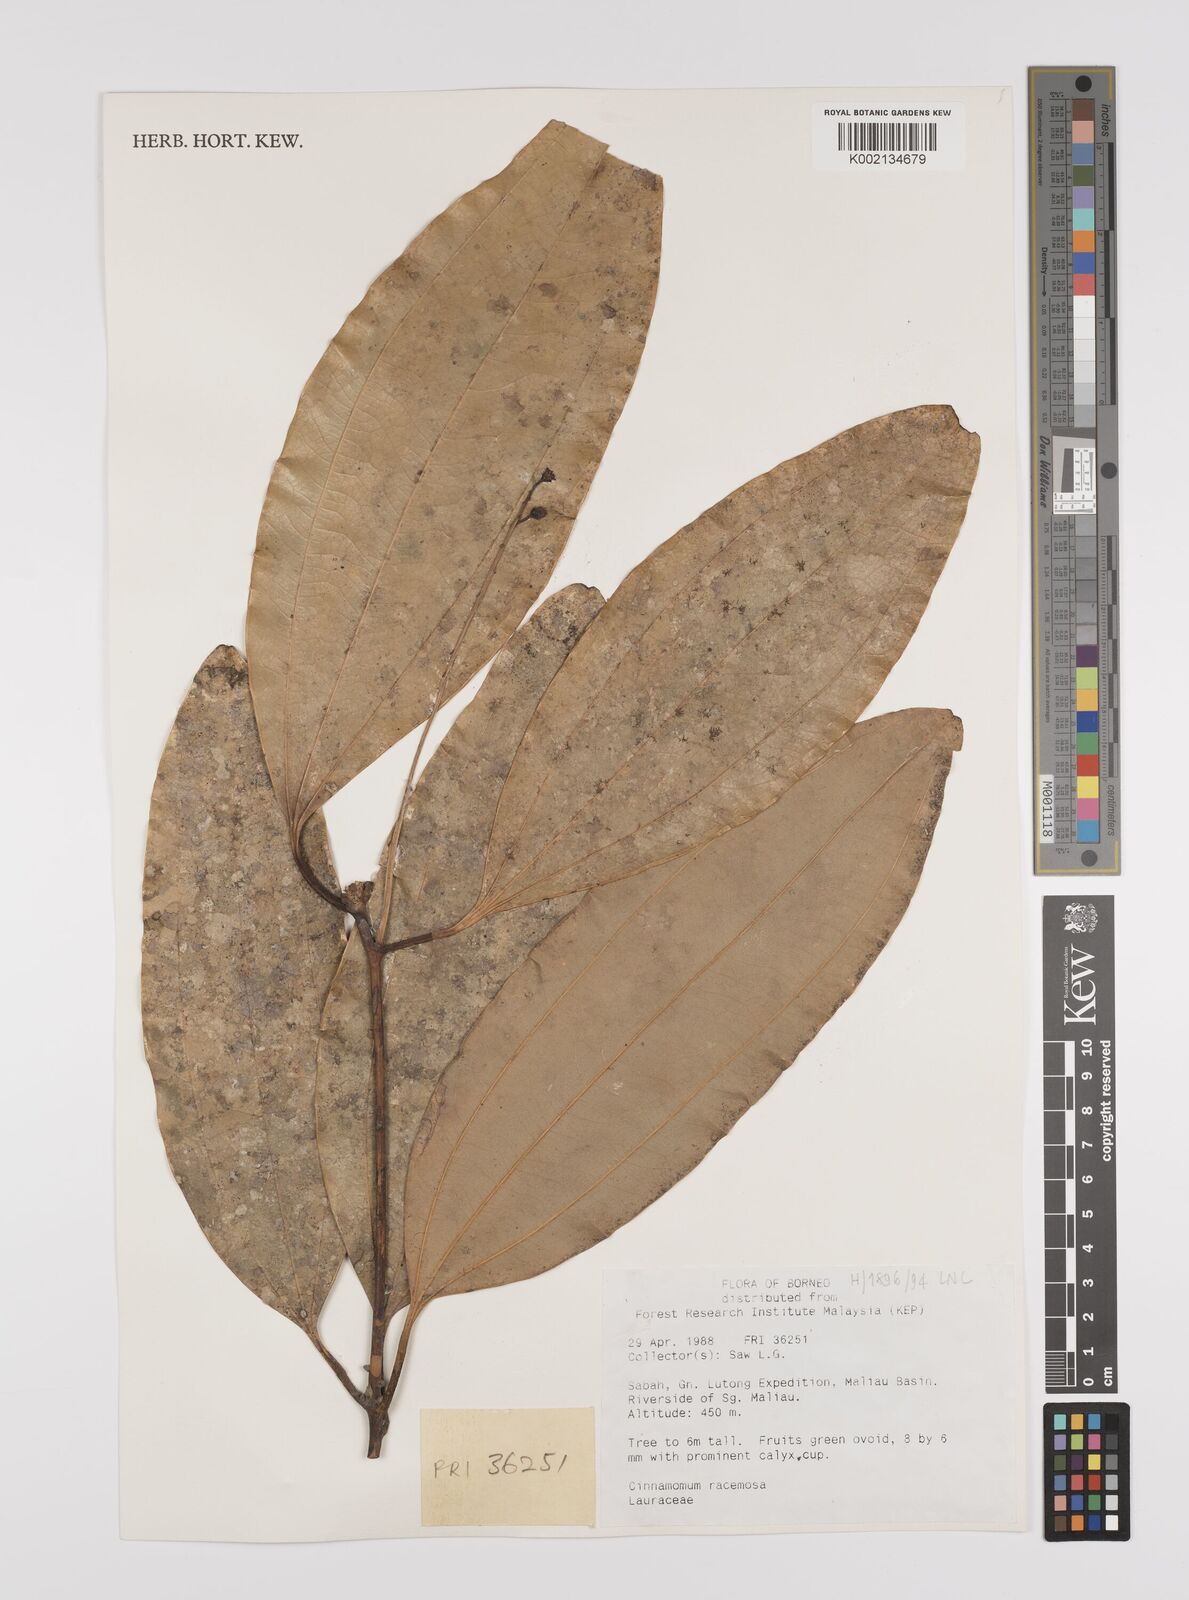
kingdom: Plantae
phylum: Tracheophyta
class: Magnoliopsida
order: Laurales
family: Lauraceae
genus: Cinnamomum
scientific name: Cinnamomum racemosum
